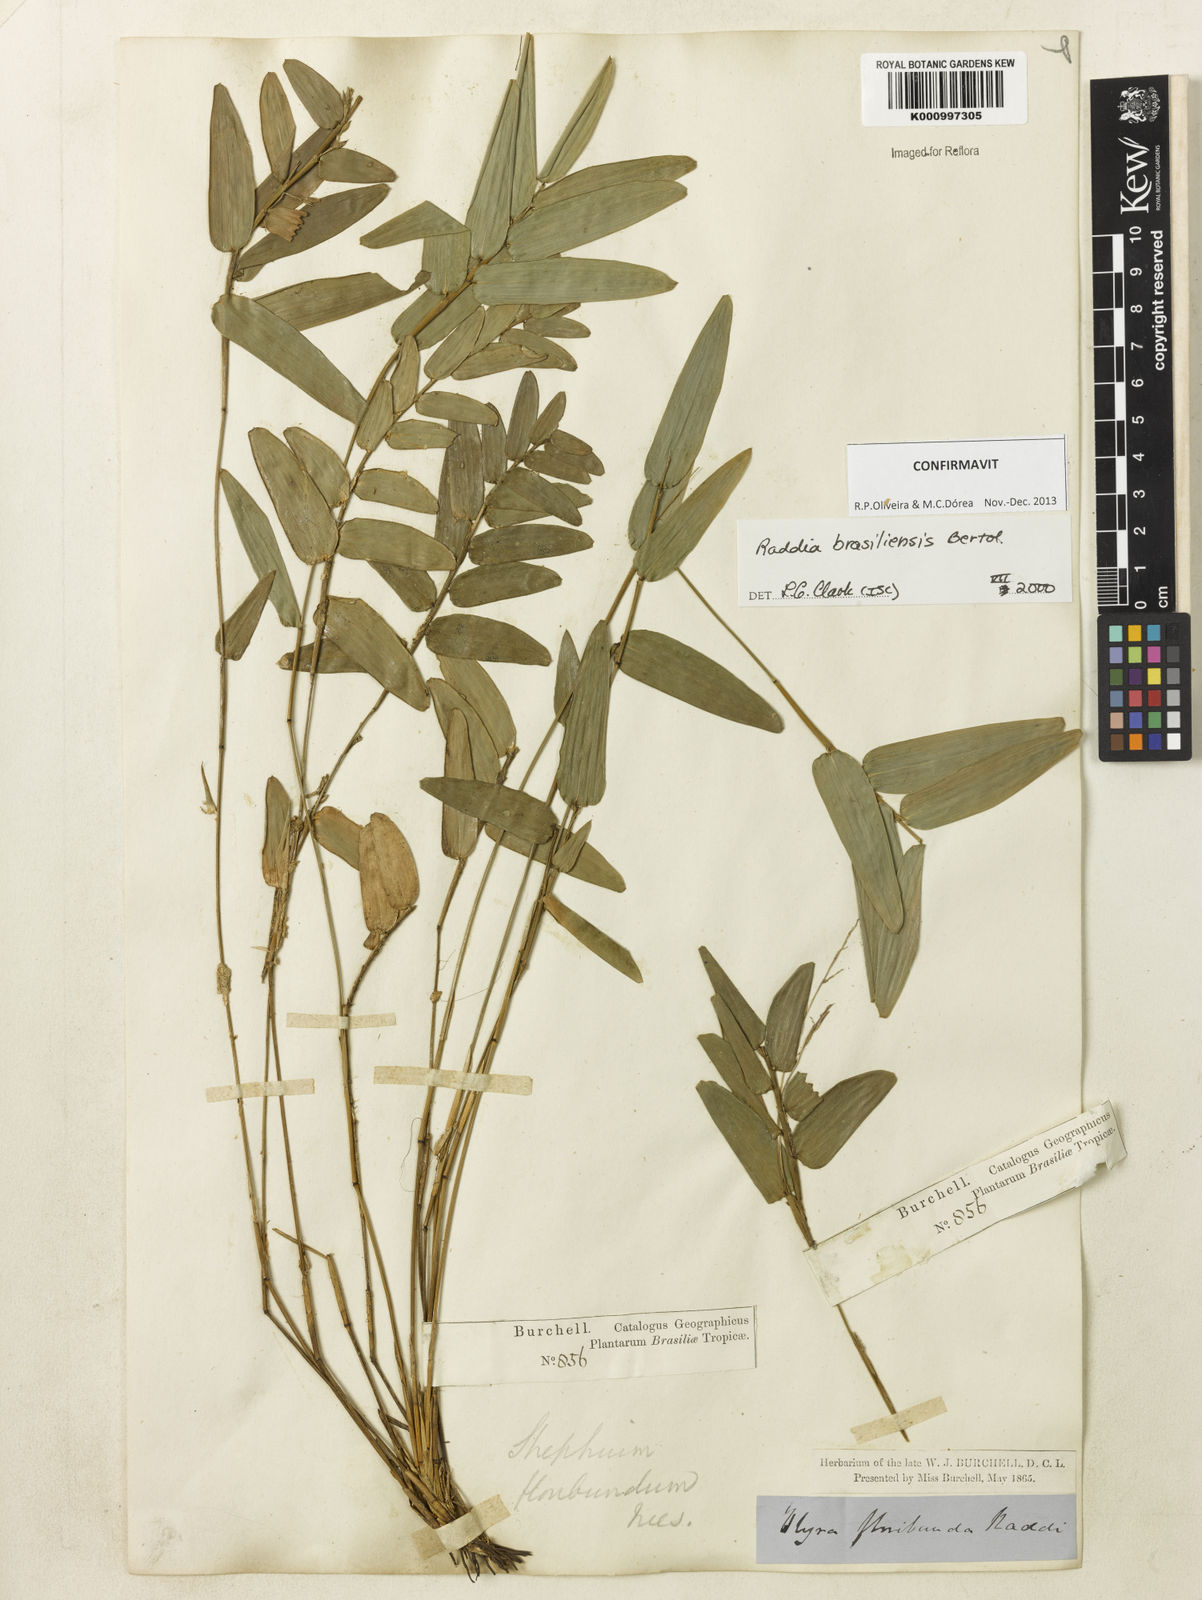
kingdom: Plantae
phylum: Tracheophyta
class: Liliopsida
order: Poales
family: Poaceae
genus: Raddia
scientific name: Raddia brasiliensis
